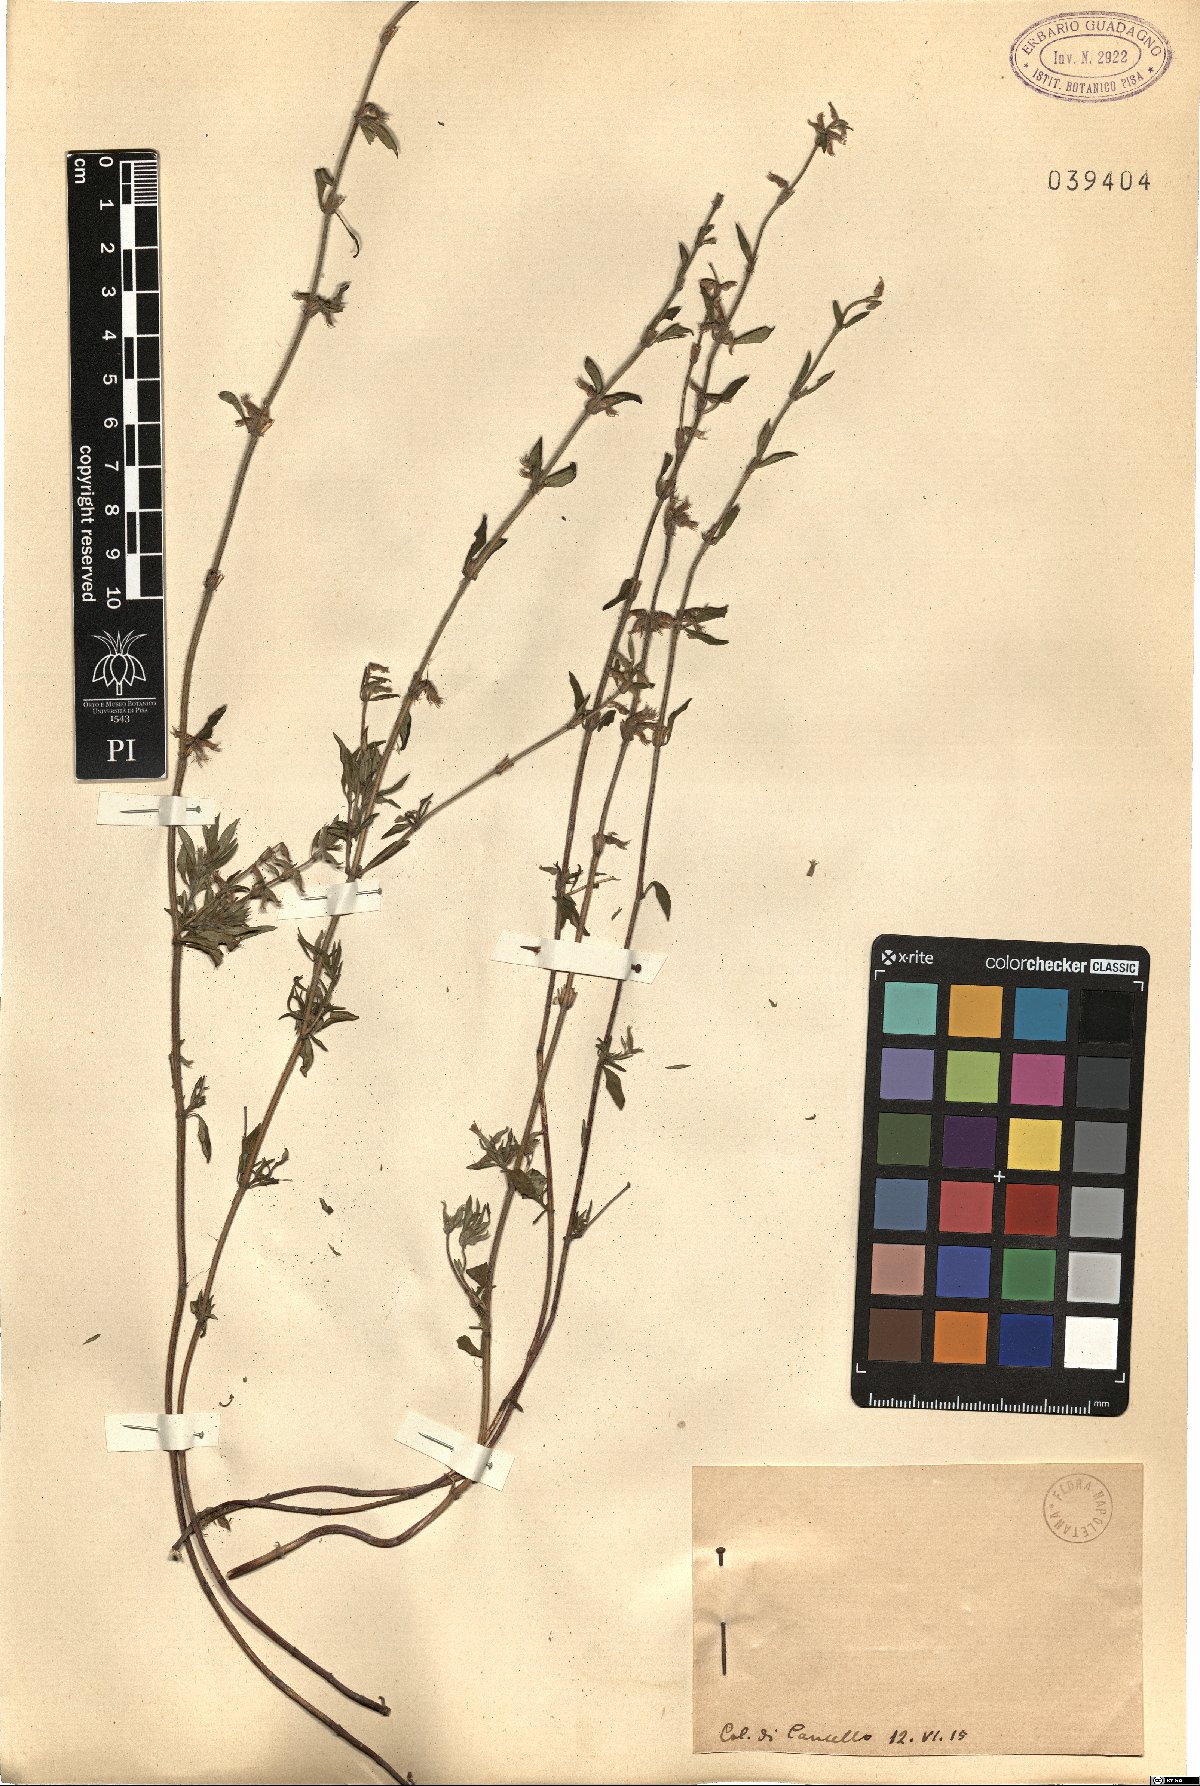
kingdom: Plantae
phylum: Tracheophyta
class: Magnoliopsida
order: Lamiales
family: Lamiaceae
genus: Calamintha
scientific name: Calamintha
